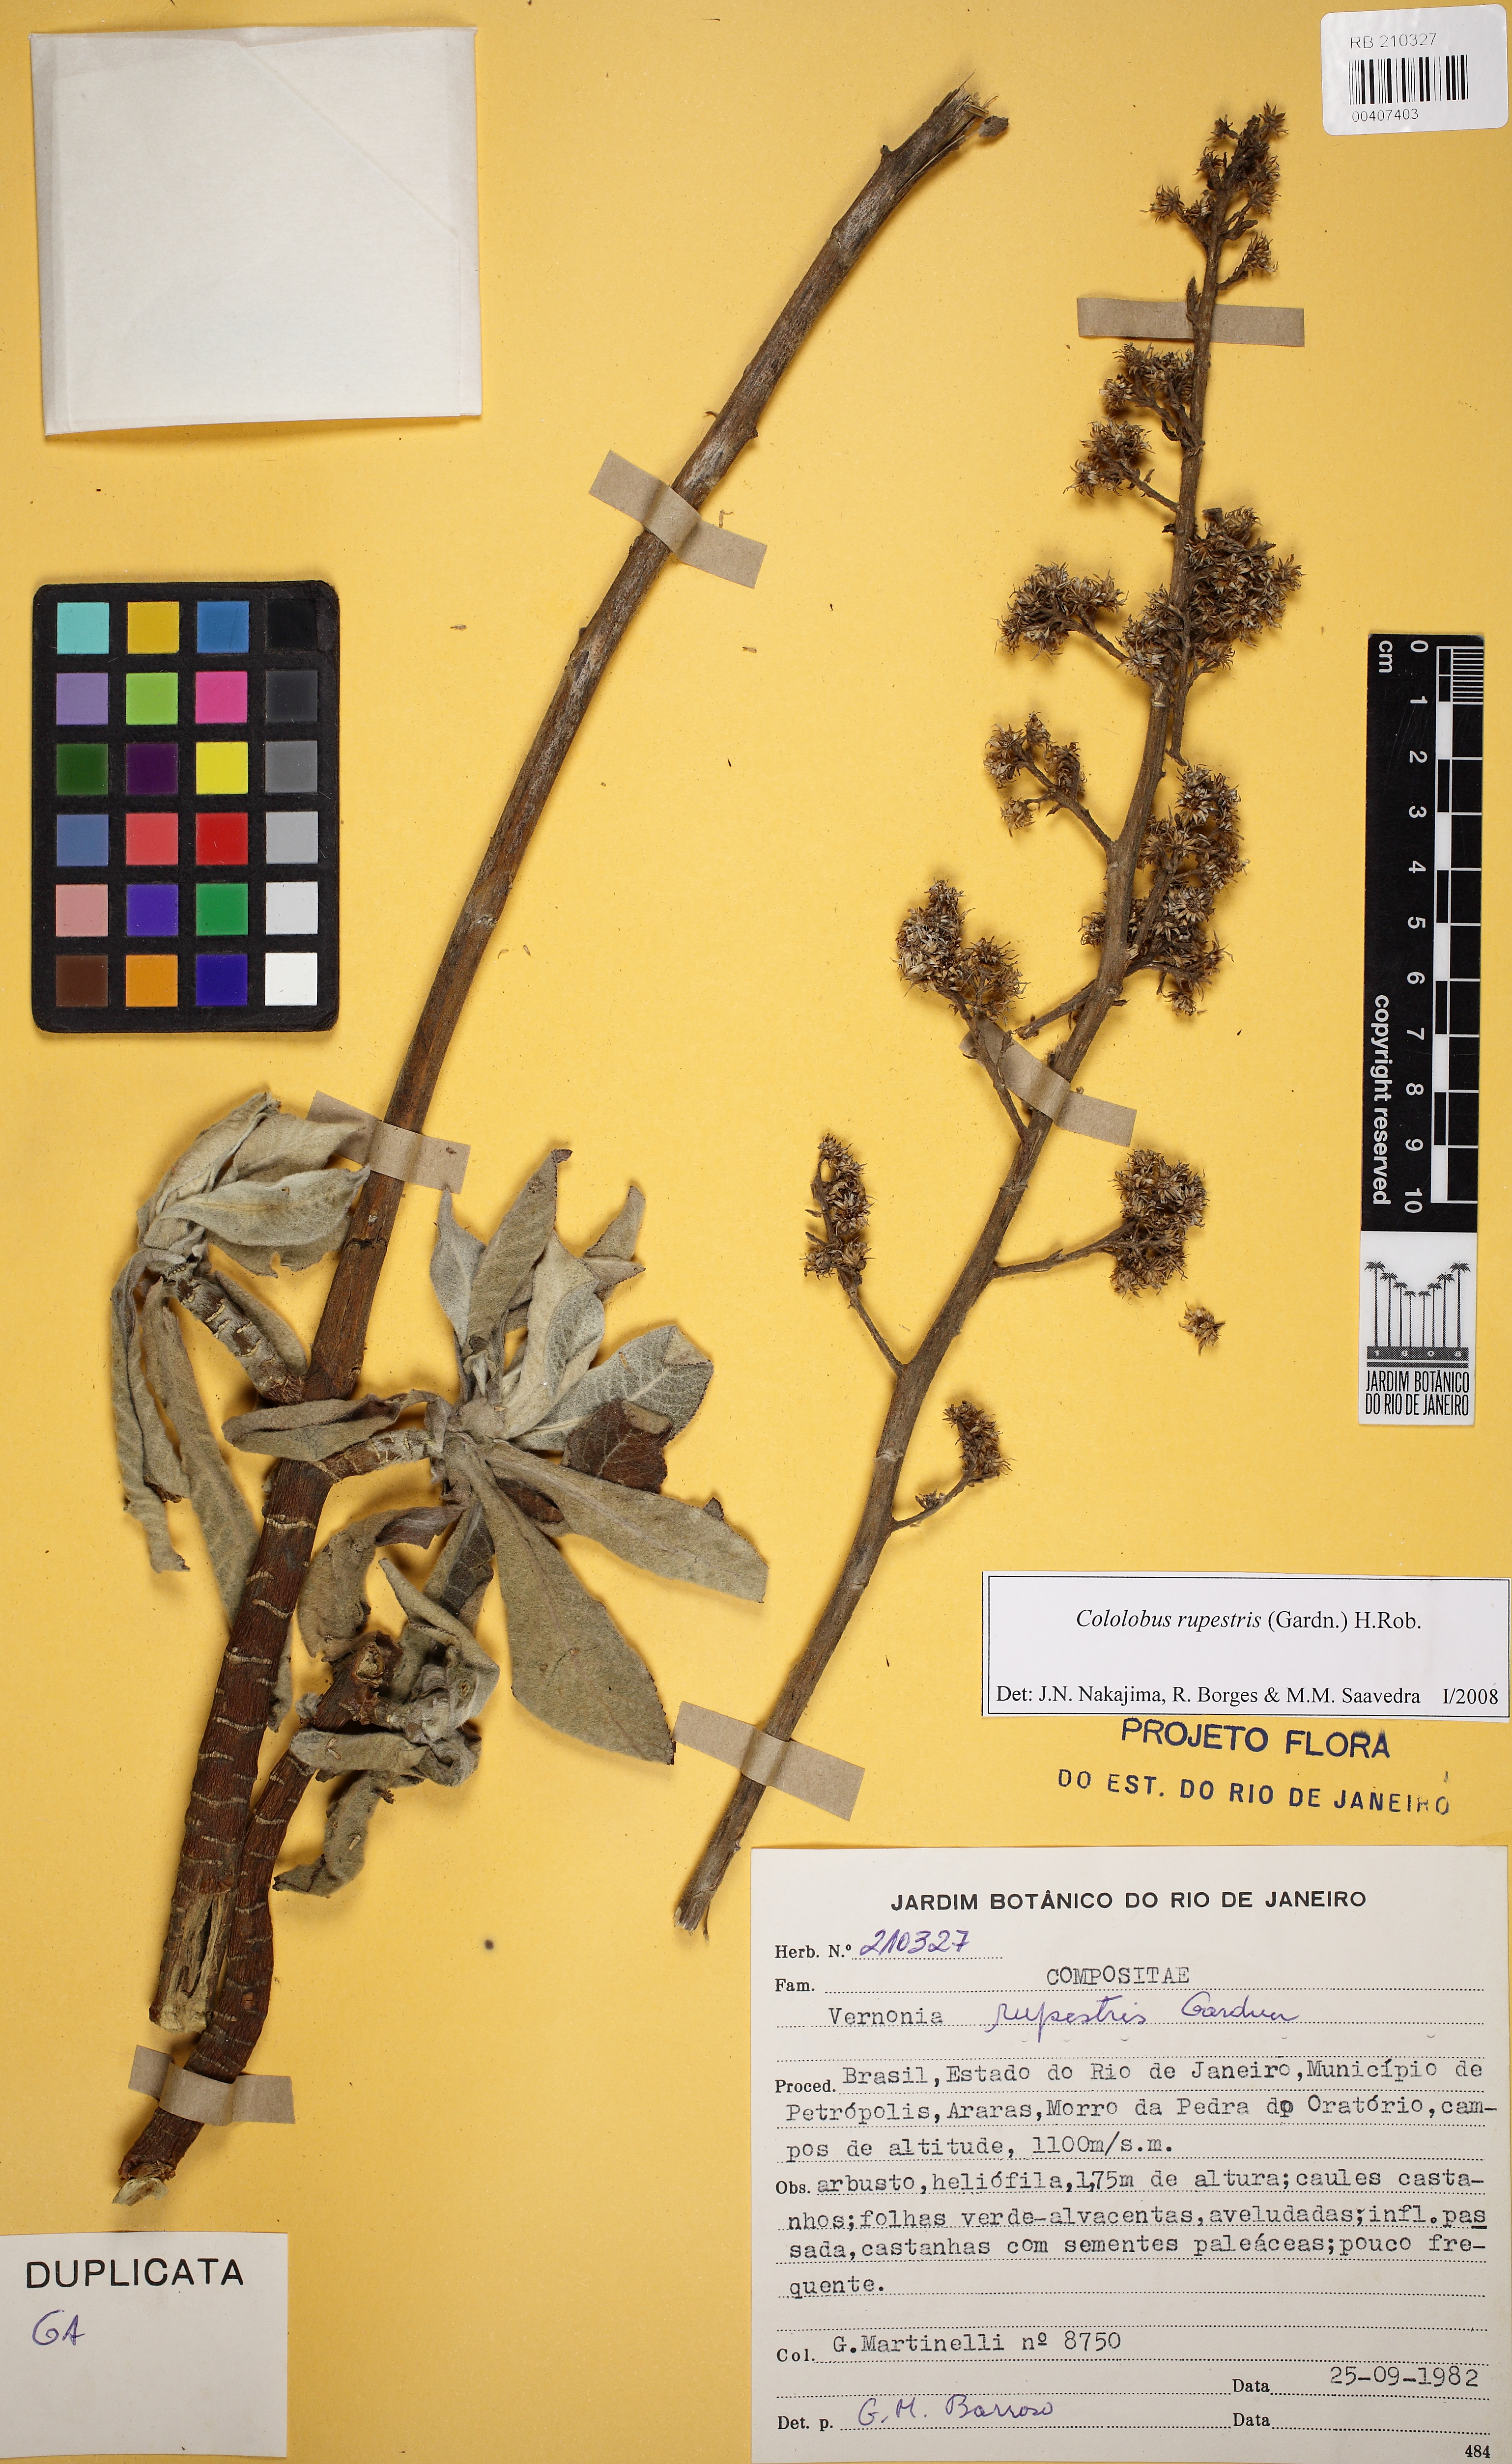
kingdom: Plantae
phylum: Tracheophyta
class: Magnoliopsida
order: Asterales
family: Asteraceae
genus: Cololobus
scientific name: Cololobus rupestris
